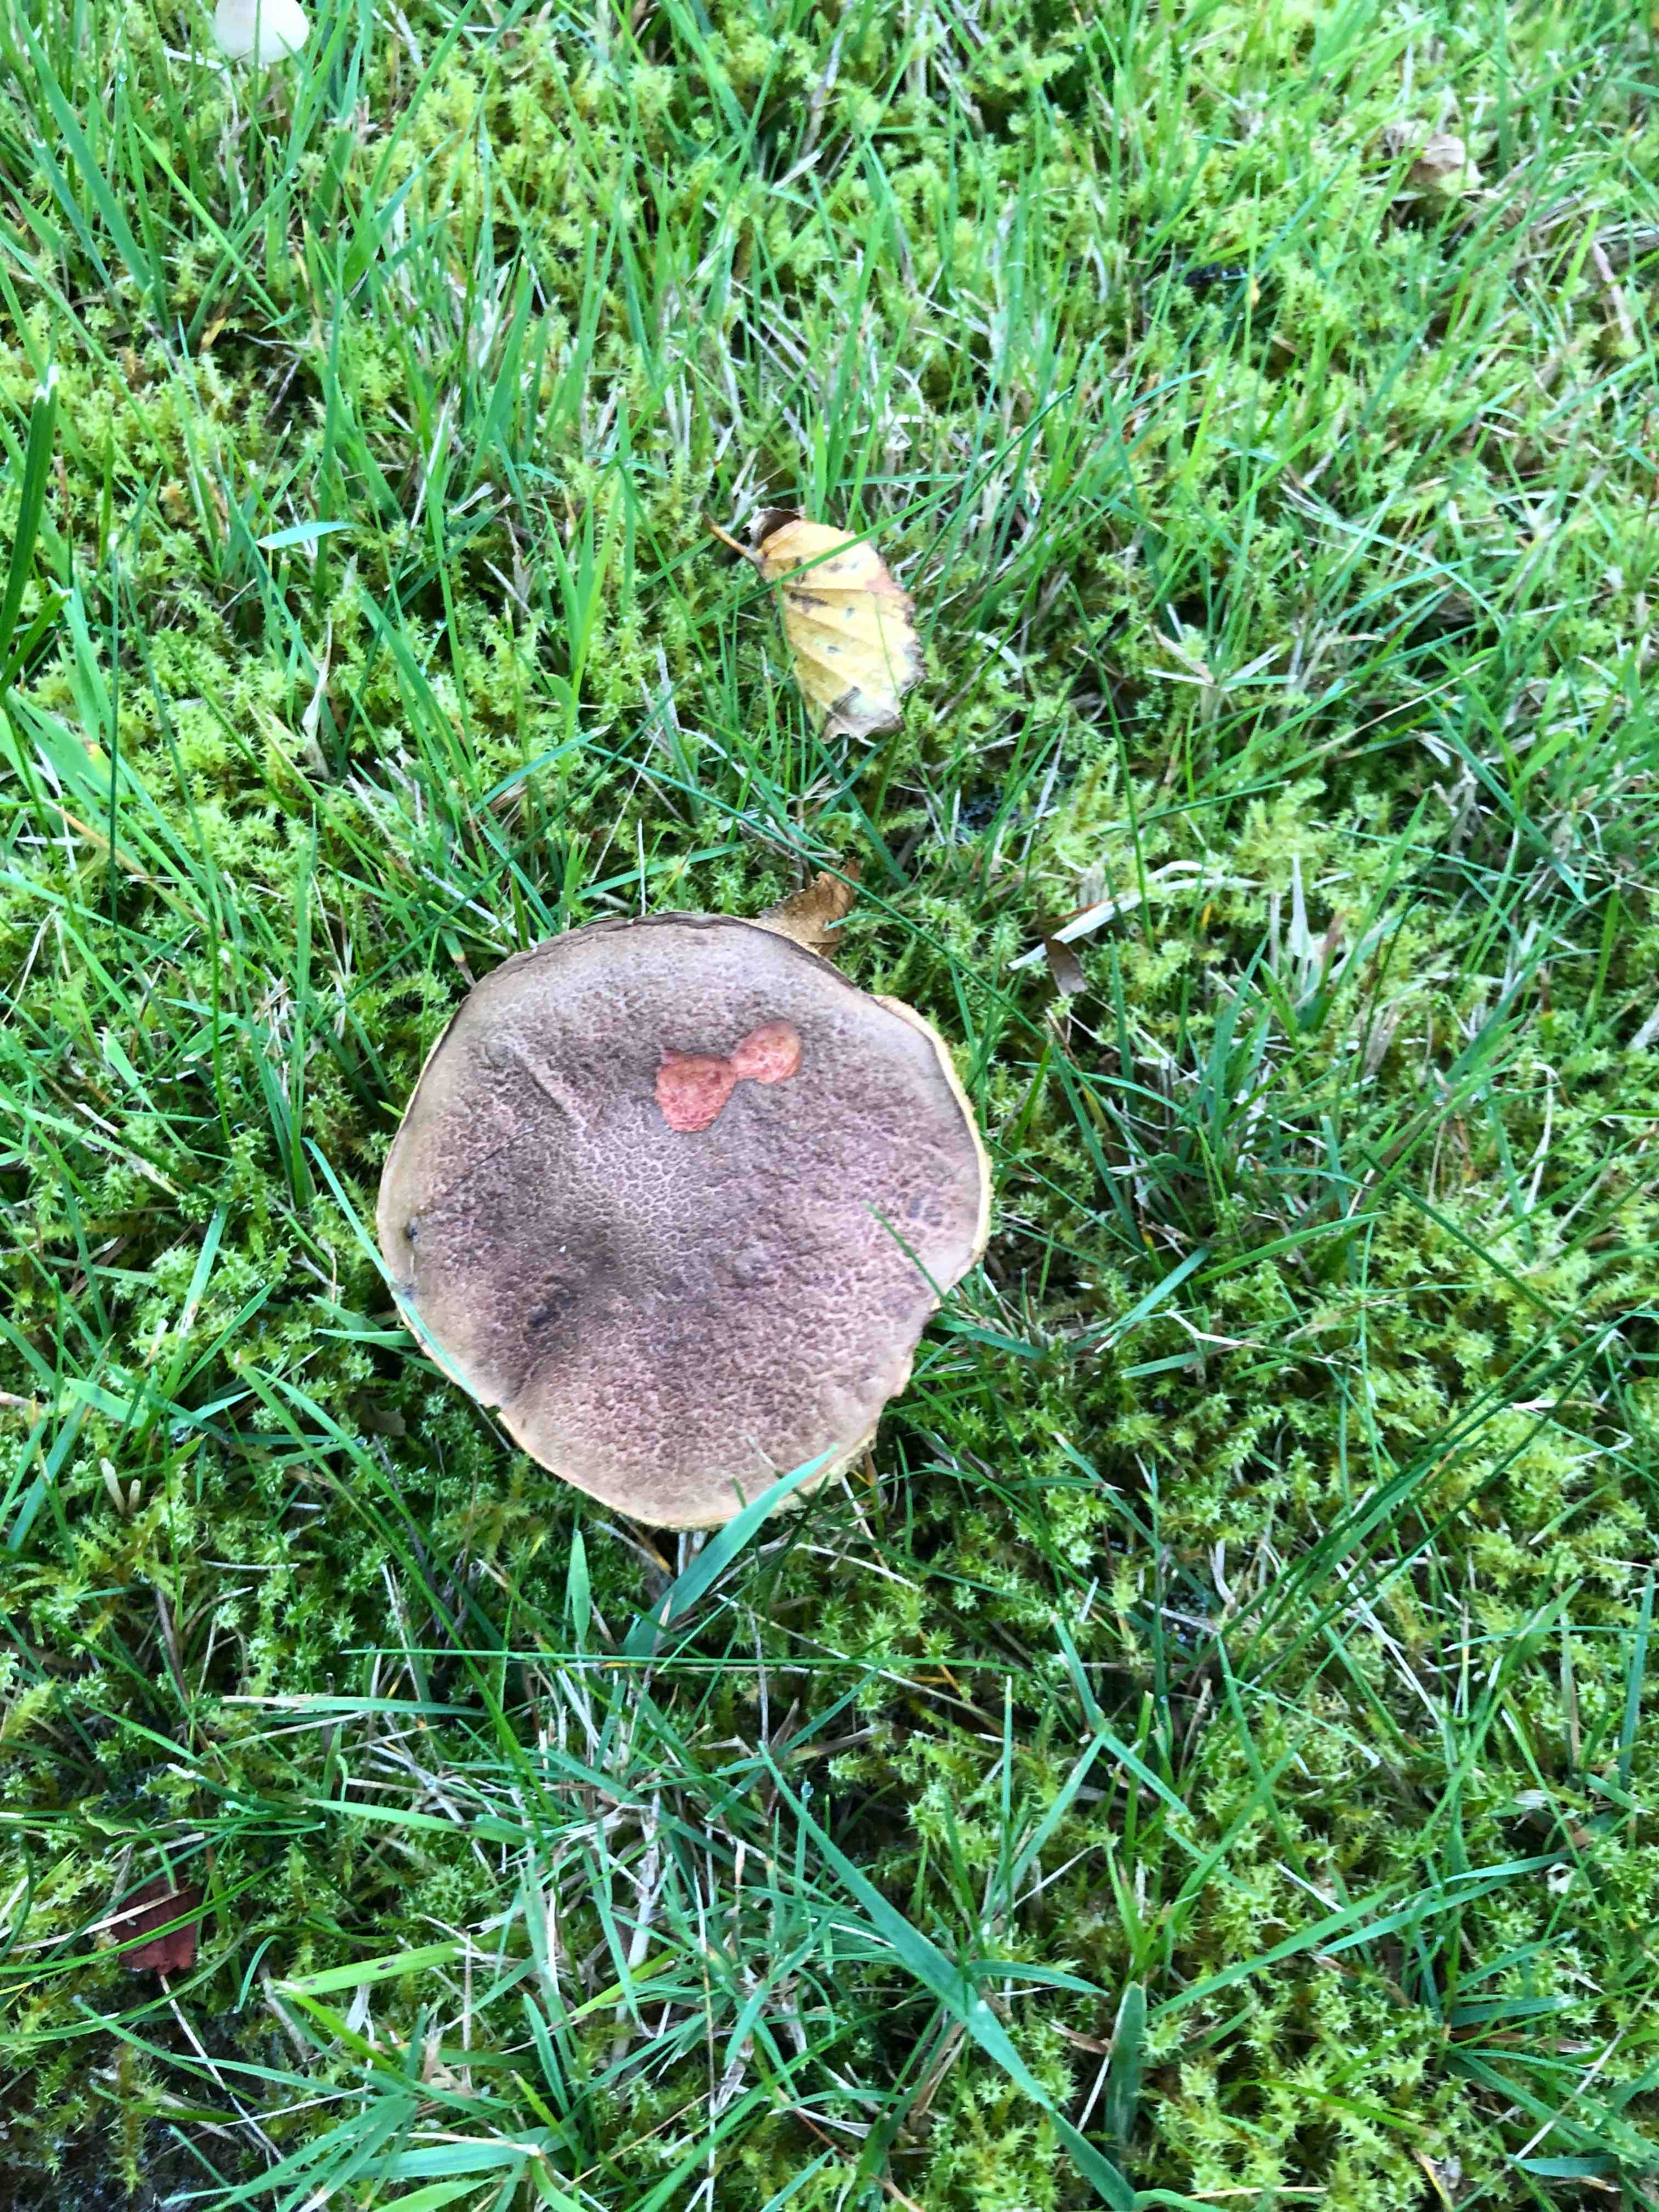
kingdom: Fungi
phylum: Basidiomycota
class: Agaricomycetes
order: Boletales
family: Boletaceae
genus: Xerocomellus
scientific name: Xerocomellus cisalpinus
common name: finsprukken rørhat
